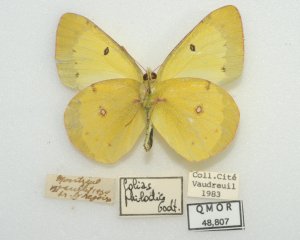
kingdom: Animalia
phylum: Arthropoda
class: Insecta
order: Lepidoptera
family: Pieridae
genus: Colias
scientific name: Colias philodice
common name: Clouded Sulphur
